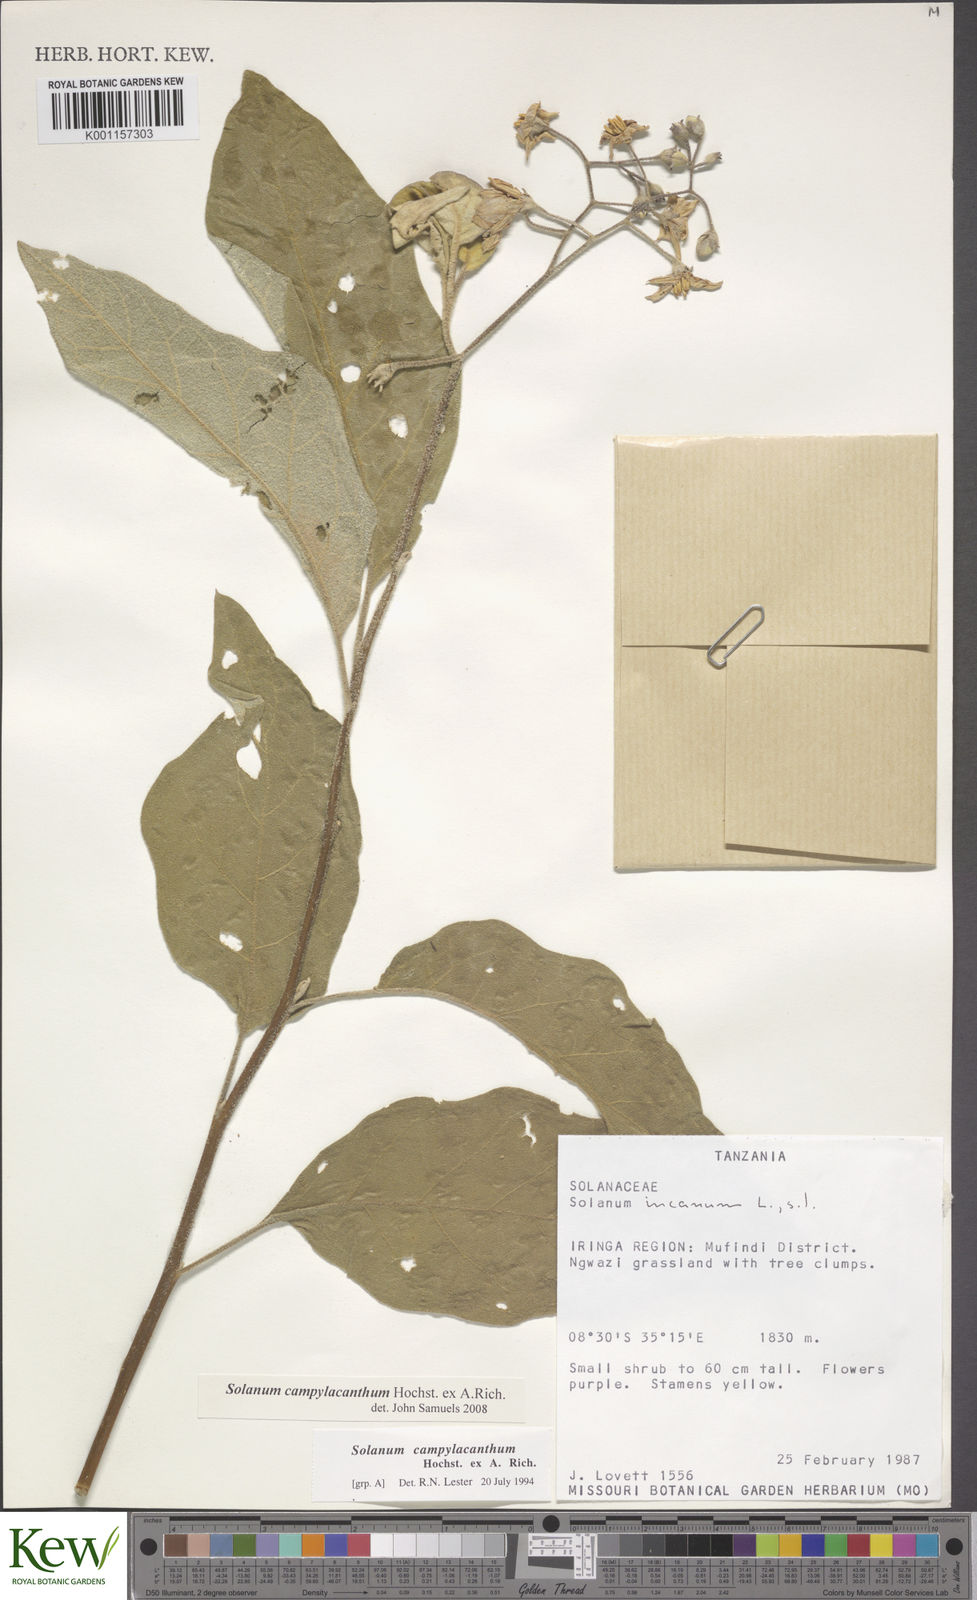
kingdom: Plantae
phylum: Tracheophyta
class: Magnoliopsida
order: Solanales
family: Solanaceae
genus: Solanum
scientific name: Solanum campylacanthum
